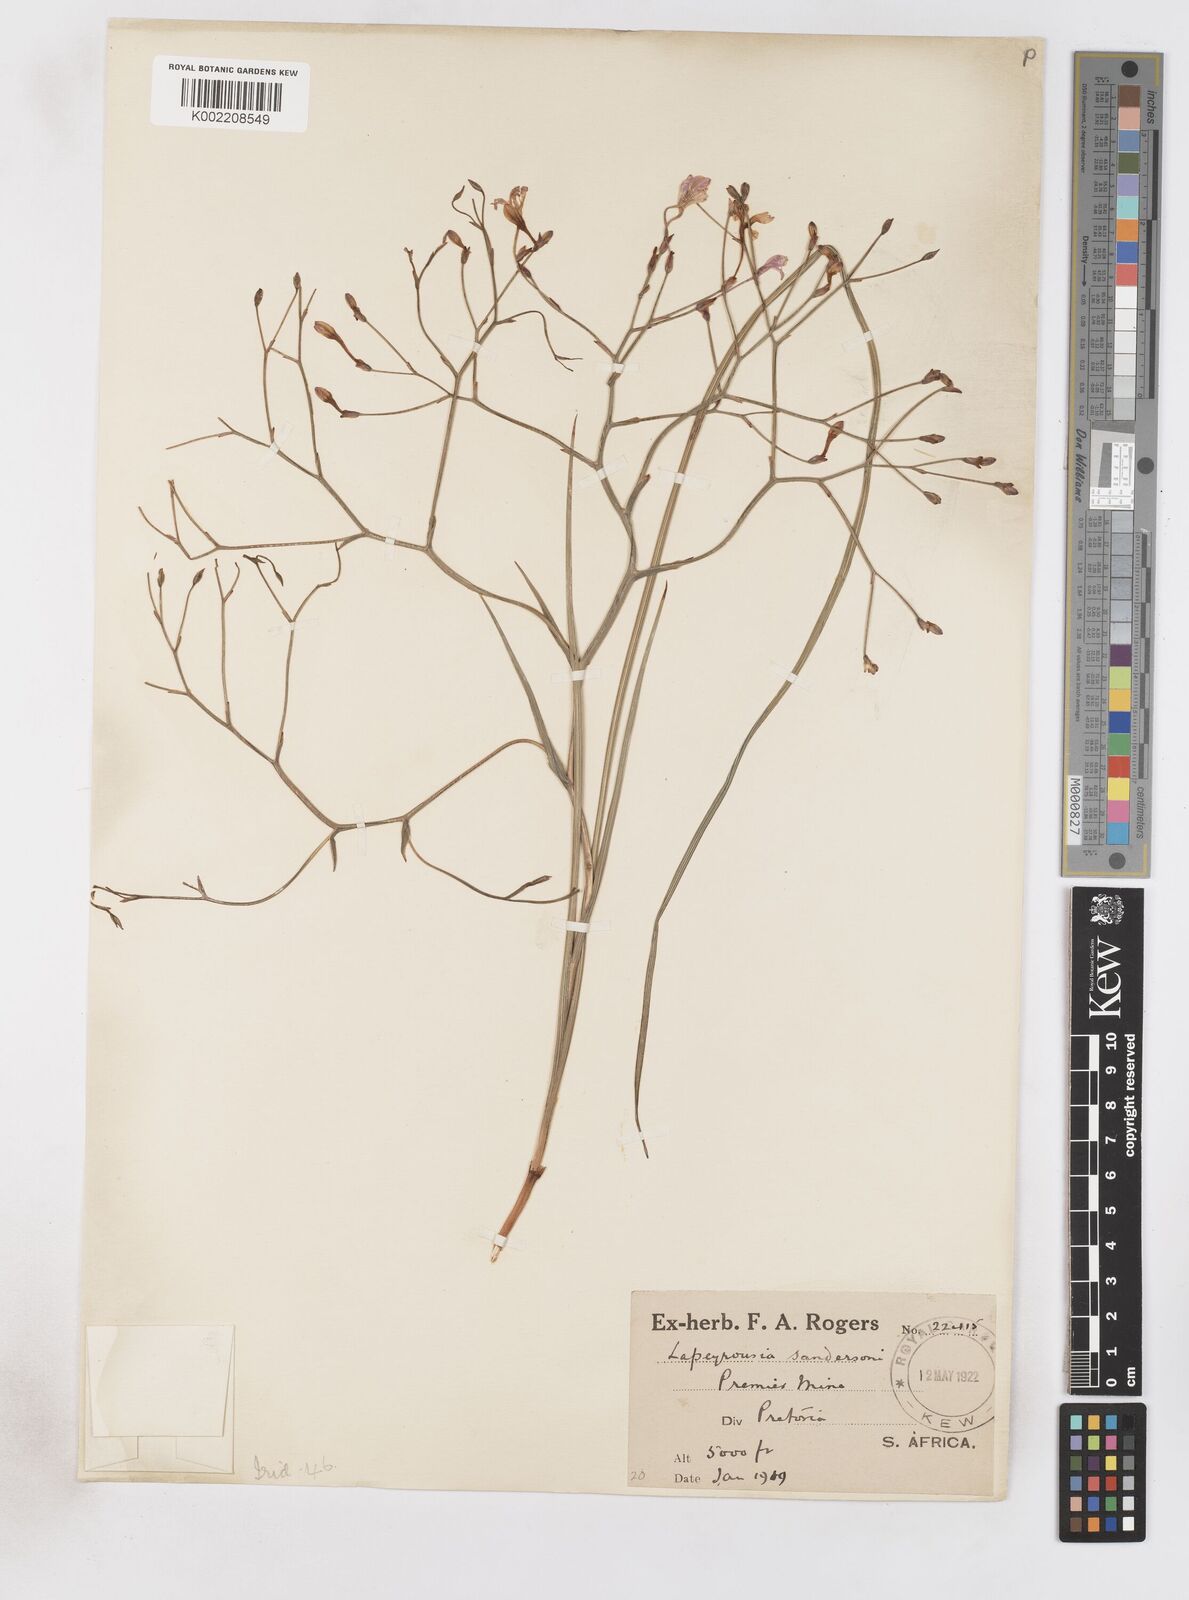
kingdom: Plantae
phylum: Tracheophyta
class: Liliopsida
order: Asparagales
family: Iridaceae
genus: Afrosolen
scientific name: Afrosolen sandersonii
